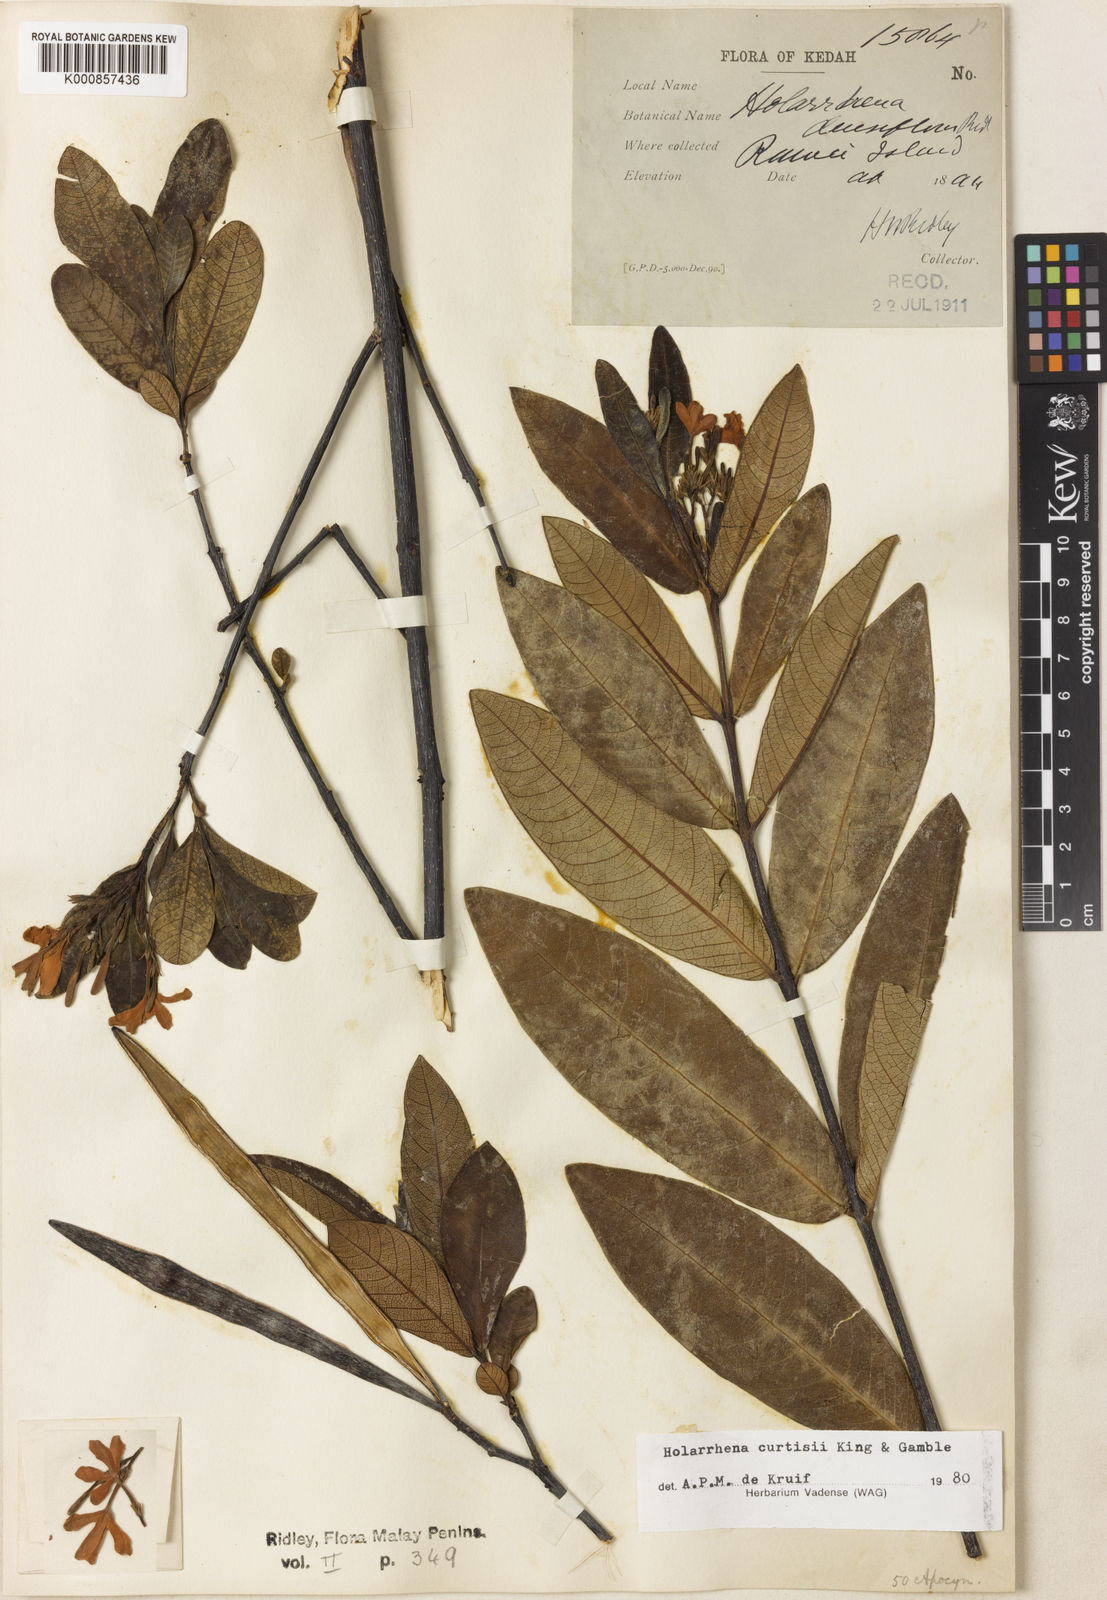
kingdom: Plantae
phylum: Tracheophyta
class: Magnoliopsida
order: Gentianales
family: Apocynaceae
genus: Holarrhena
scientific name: Holarrhena curtisii
